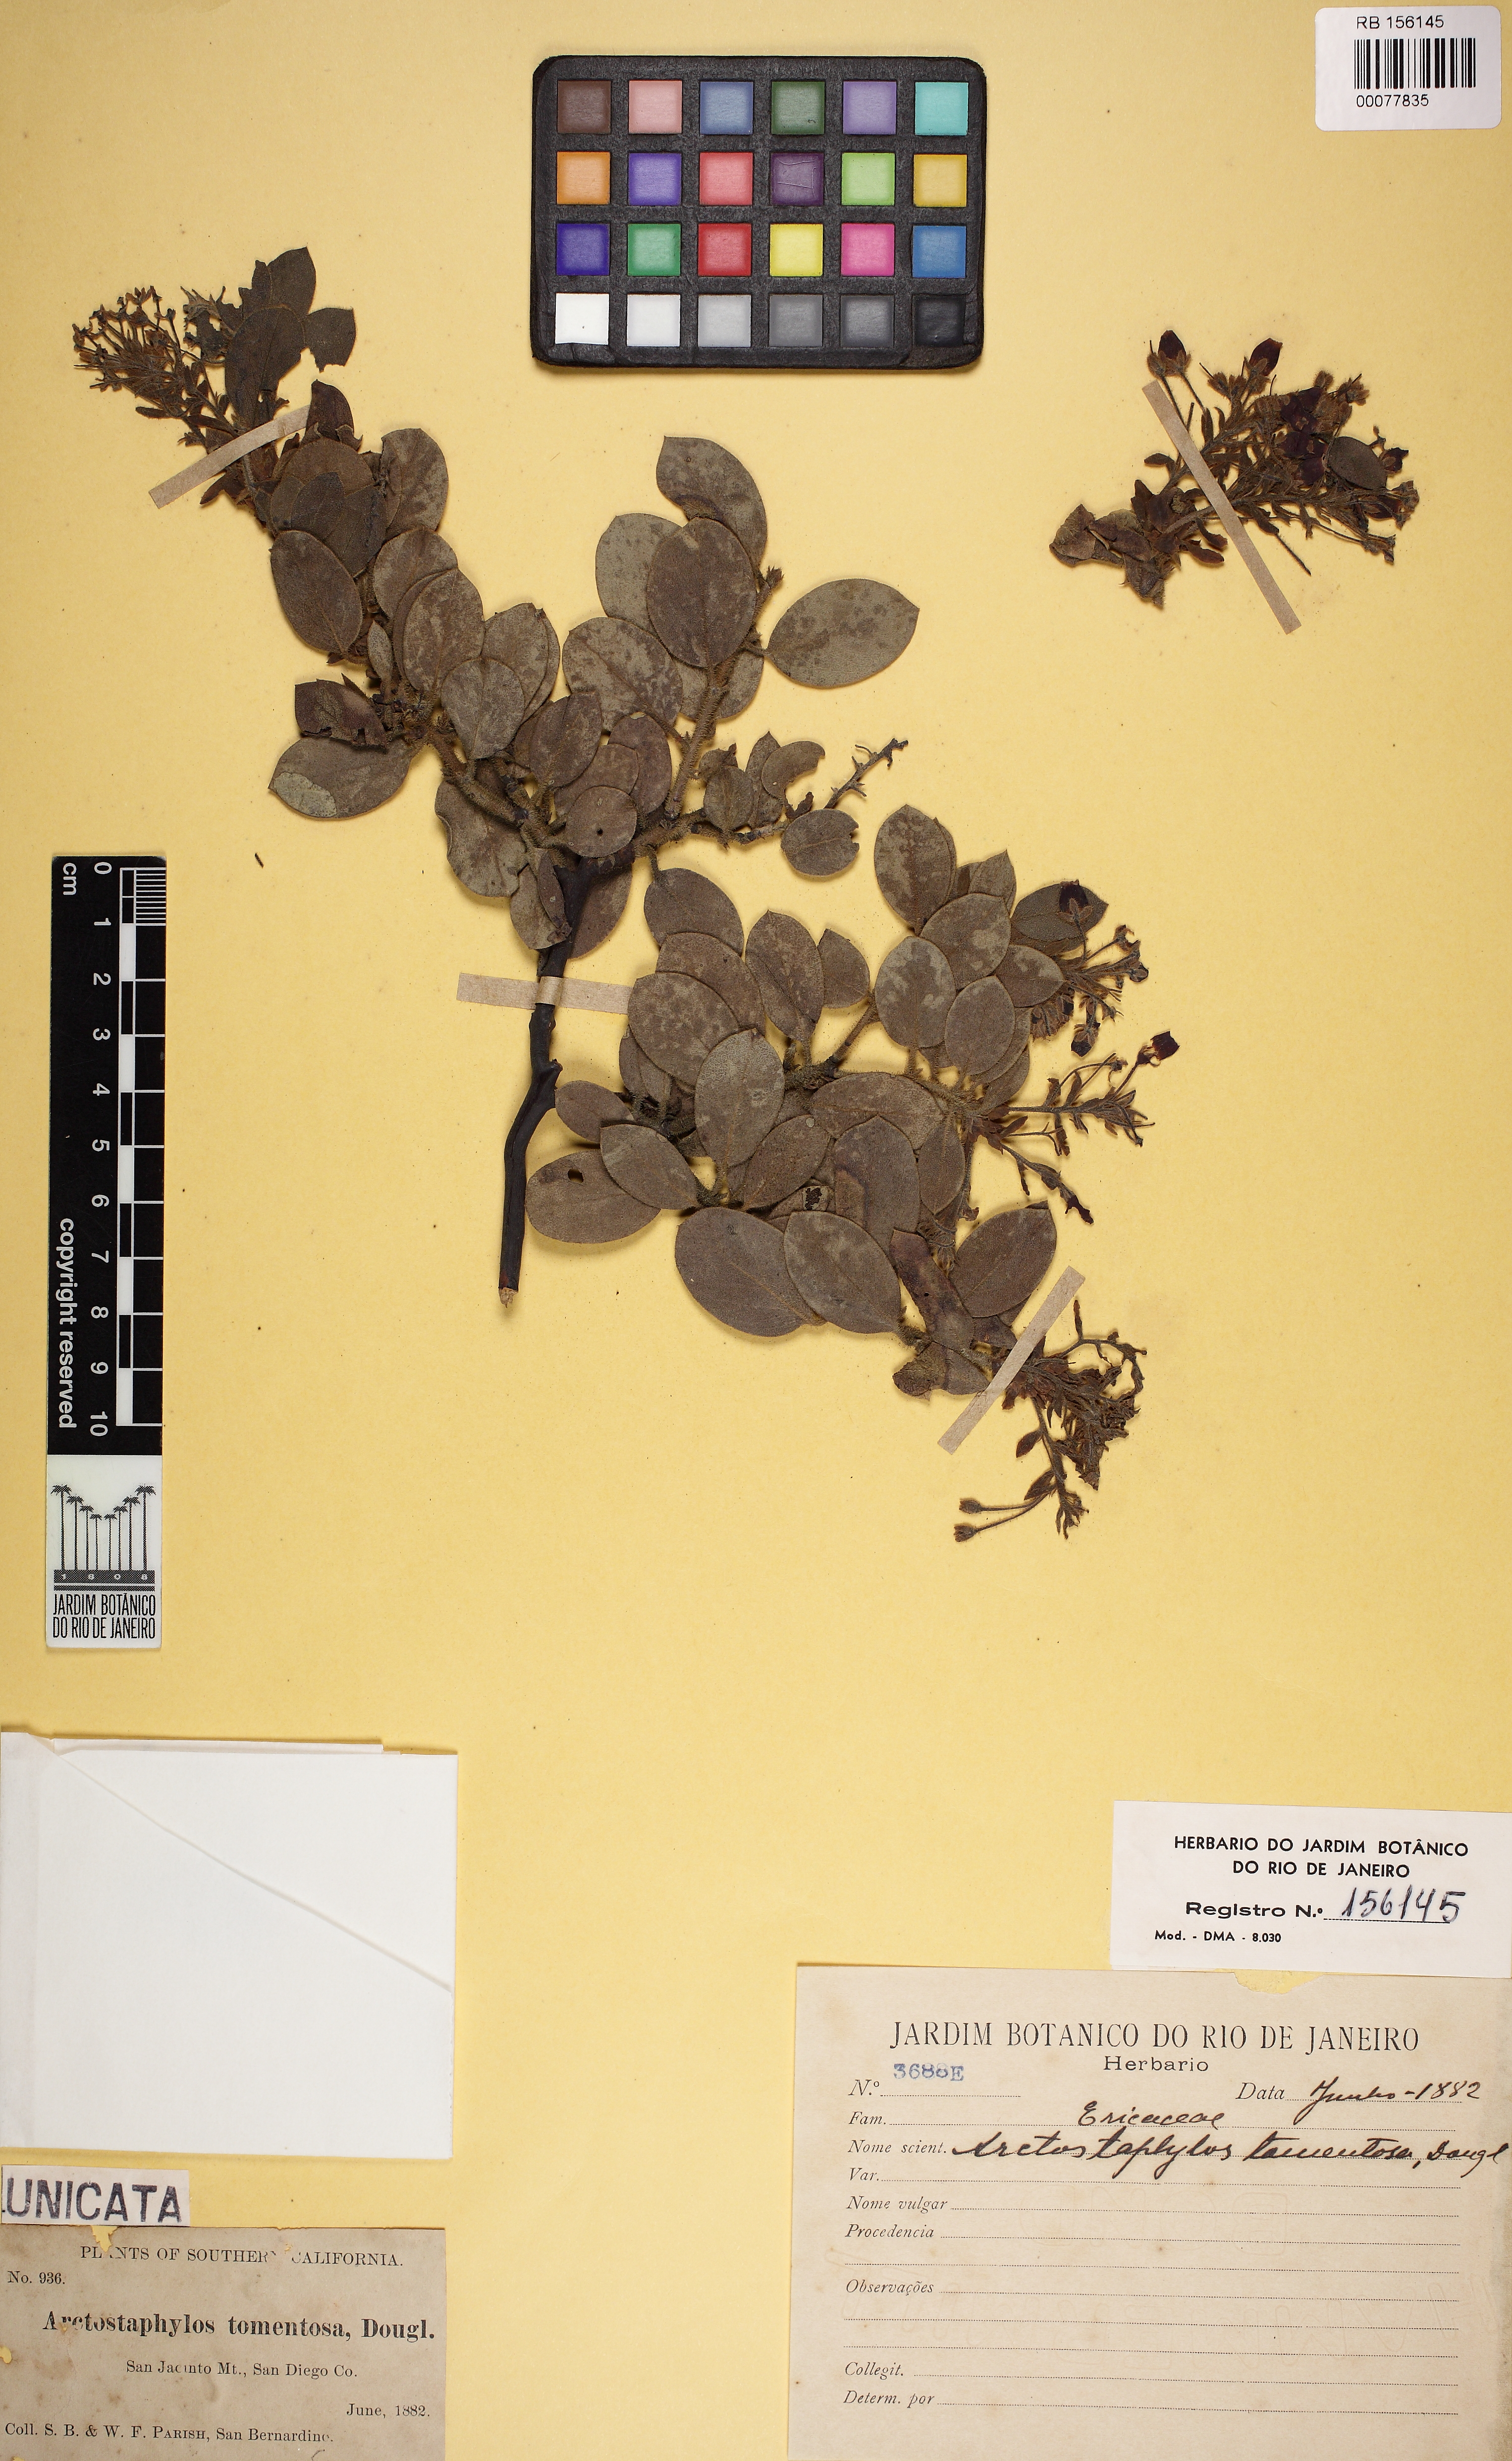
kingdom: Plantae
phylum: Tracheophyta
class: Magnoliopsida
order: Ericales
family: Ericaceae
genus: Arctostaphylos
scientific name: Arctostaphylos tomentosa
